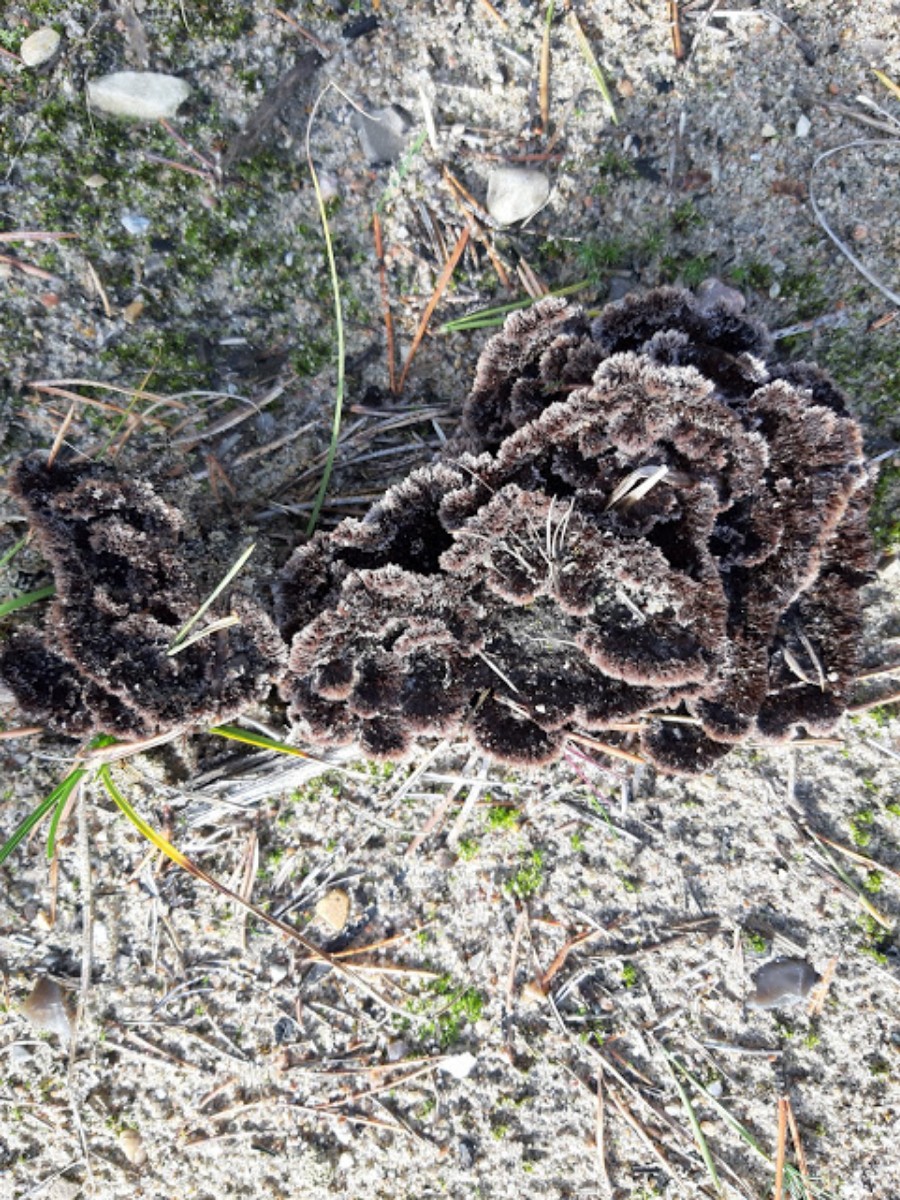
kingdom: Fungi
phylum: Basidiomycota
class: Agaricomycetes
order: Thelephorales
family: Thelephoraceae
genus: Thelephora
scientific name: Thelephora terrestris
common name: fliget frynsesvamp
